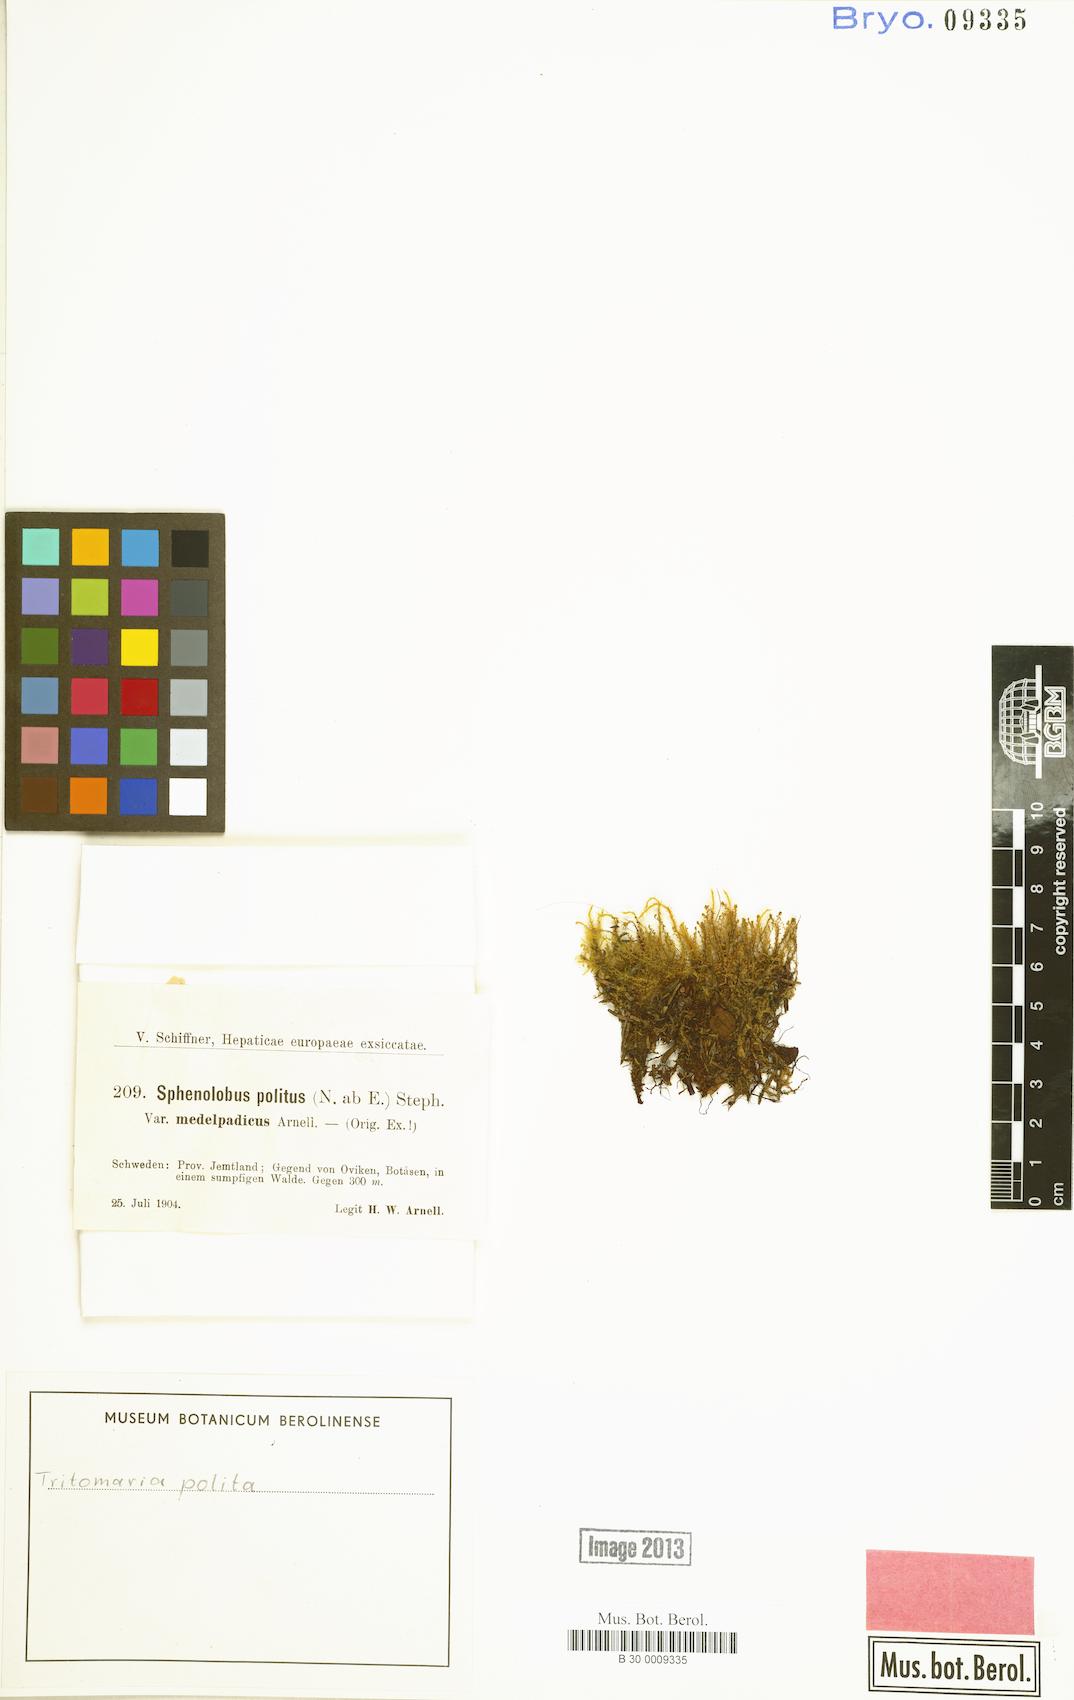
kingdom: Plantae
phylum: Marchantiophyta
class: Jungermanniopsida
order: Jungermanniales
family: Scapaniaceae
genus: Saccobasis
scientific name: Saccobasis polita
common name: Flush notchwort
